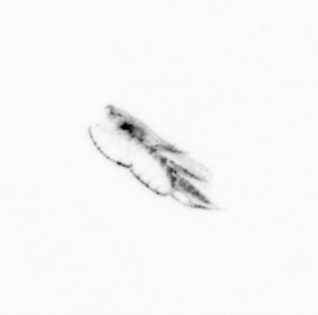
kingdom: Animalia
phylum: Arthropoda
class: Copepoda
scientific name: Copepoda
